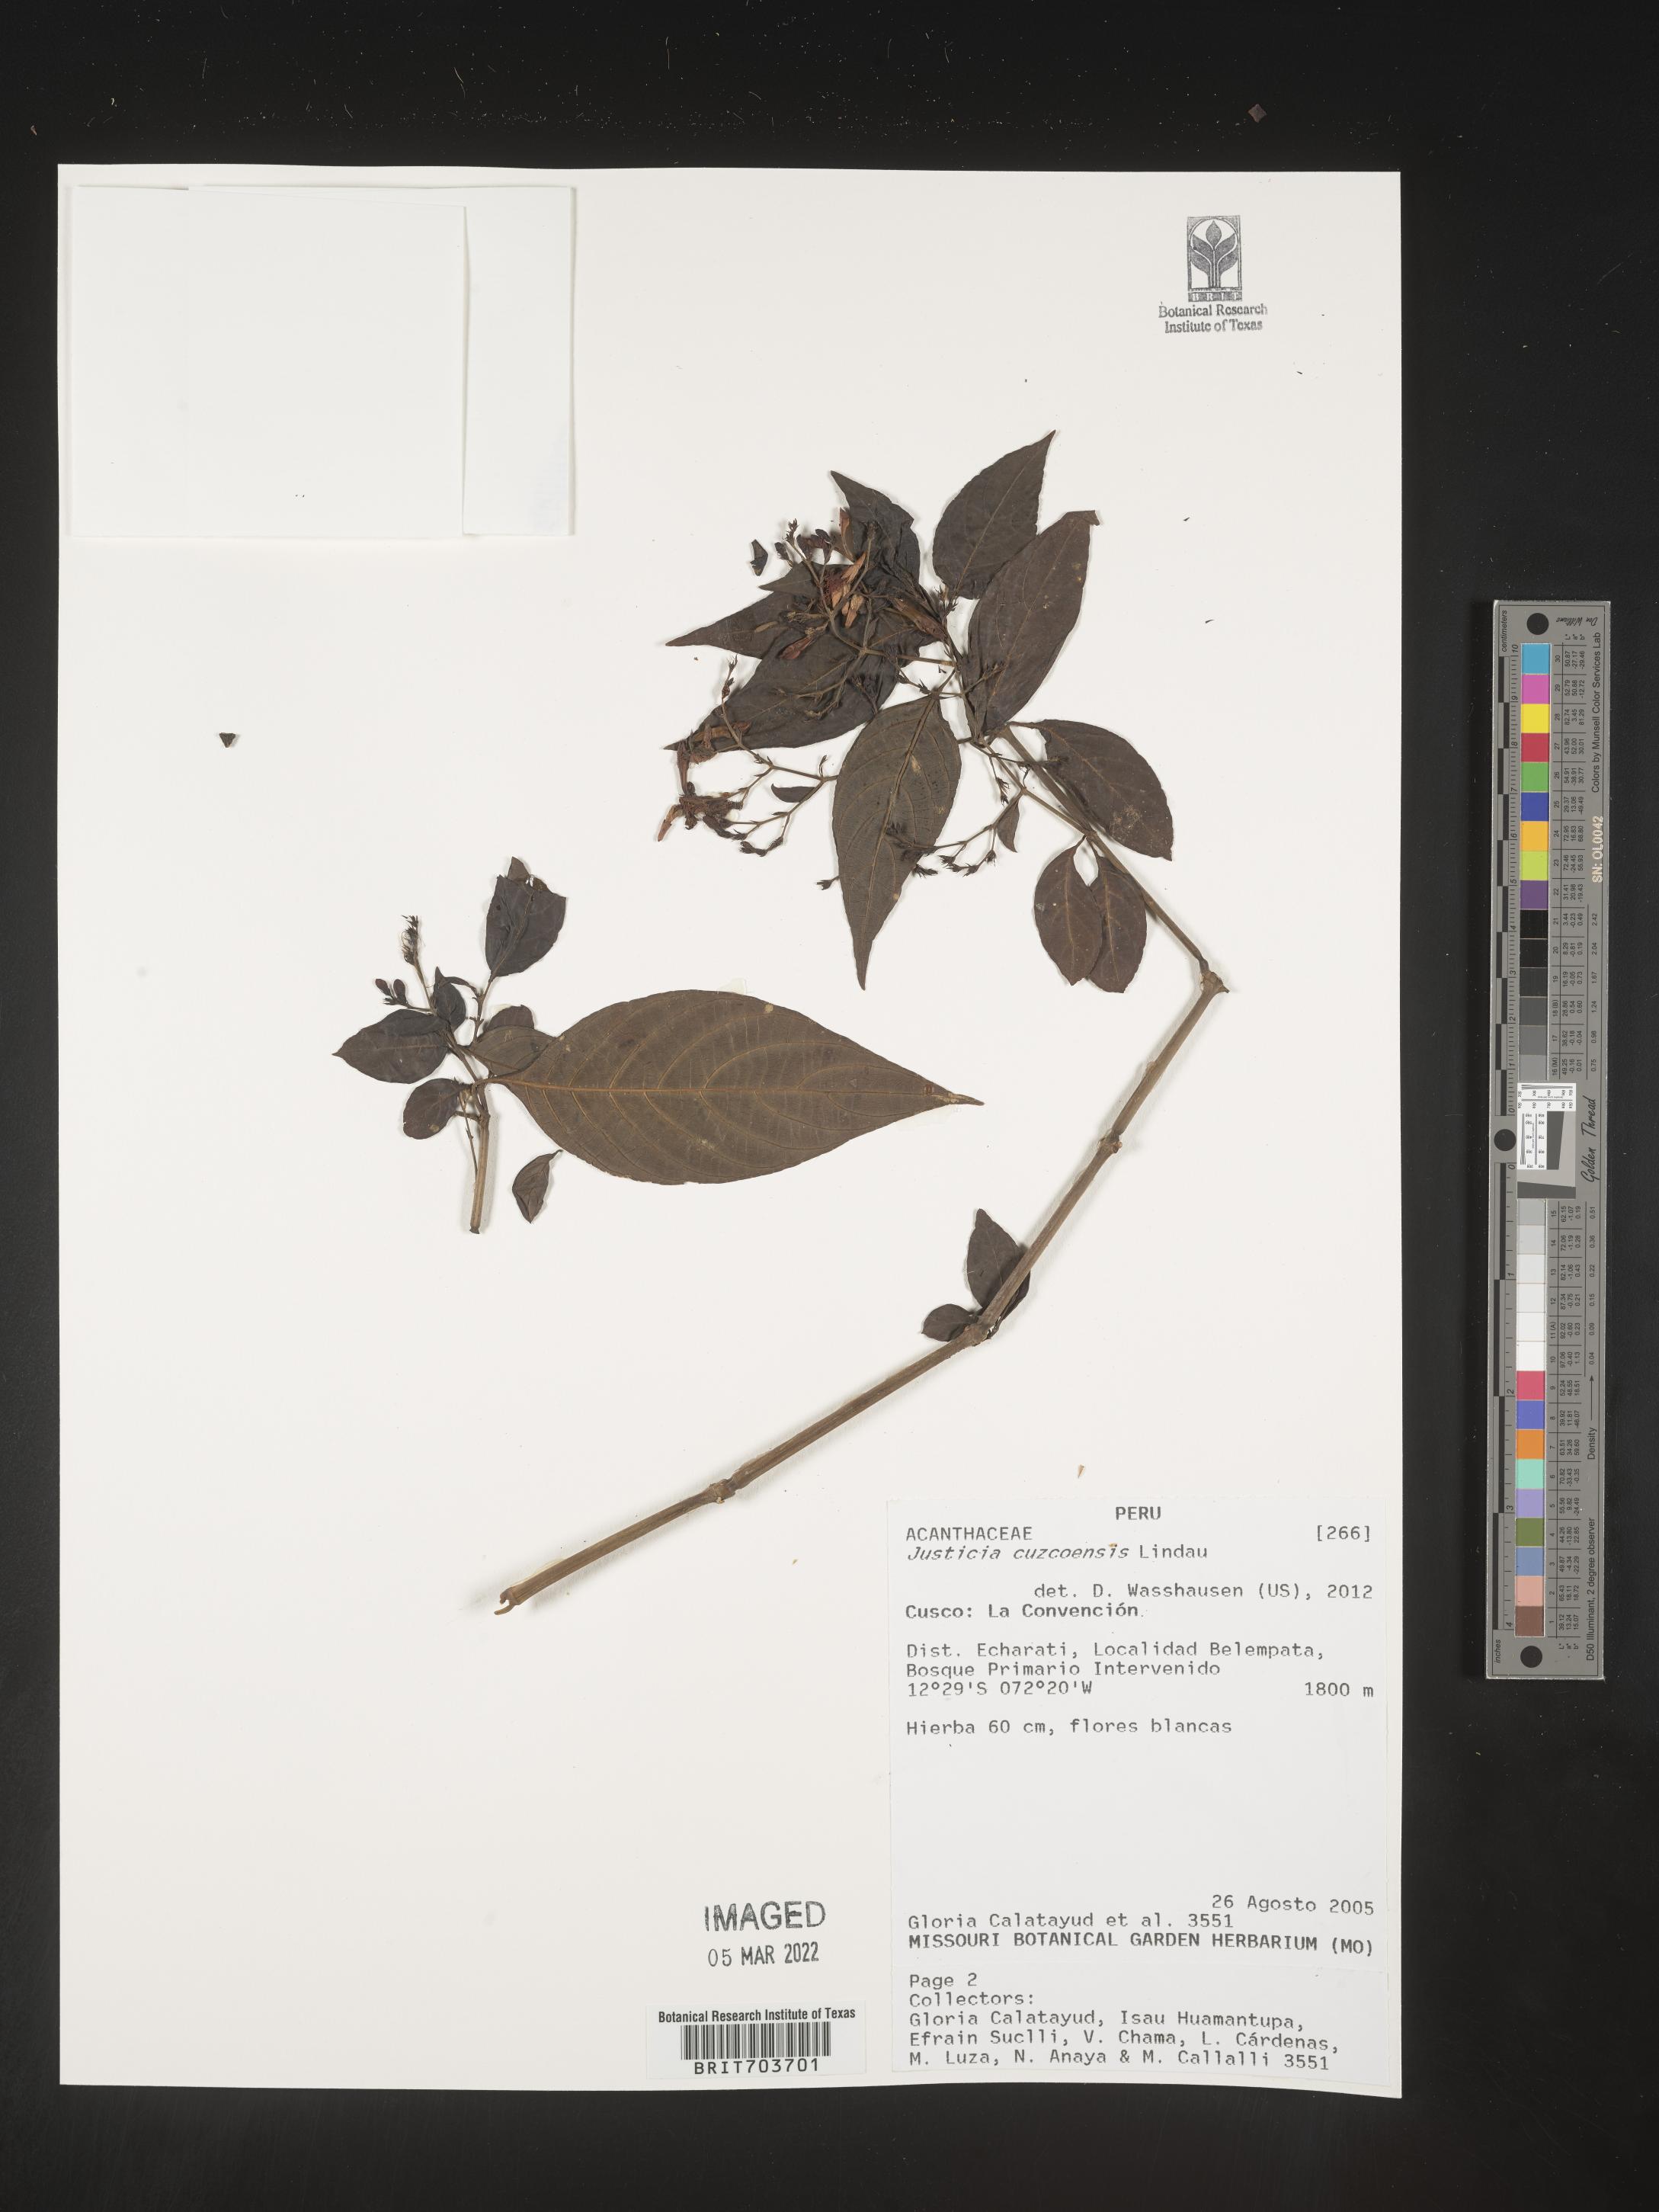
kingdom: Plantae
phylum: Tracheophyta
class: Magnoliopsida
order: Lamiales
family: Acanthaceae
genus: Justicia
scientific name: Justicia cuzcoensis
